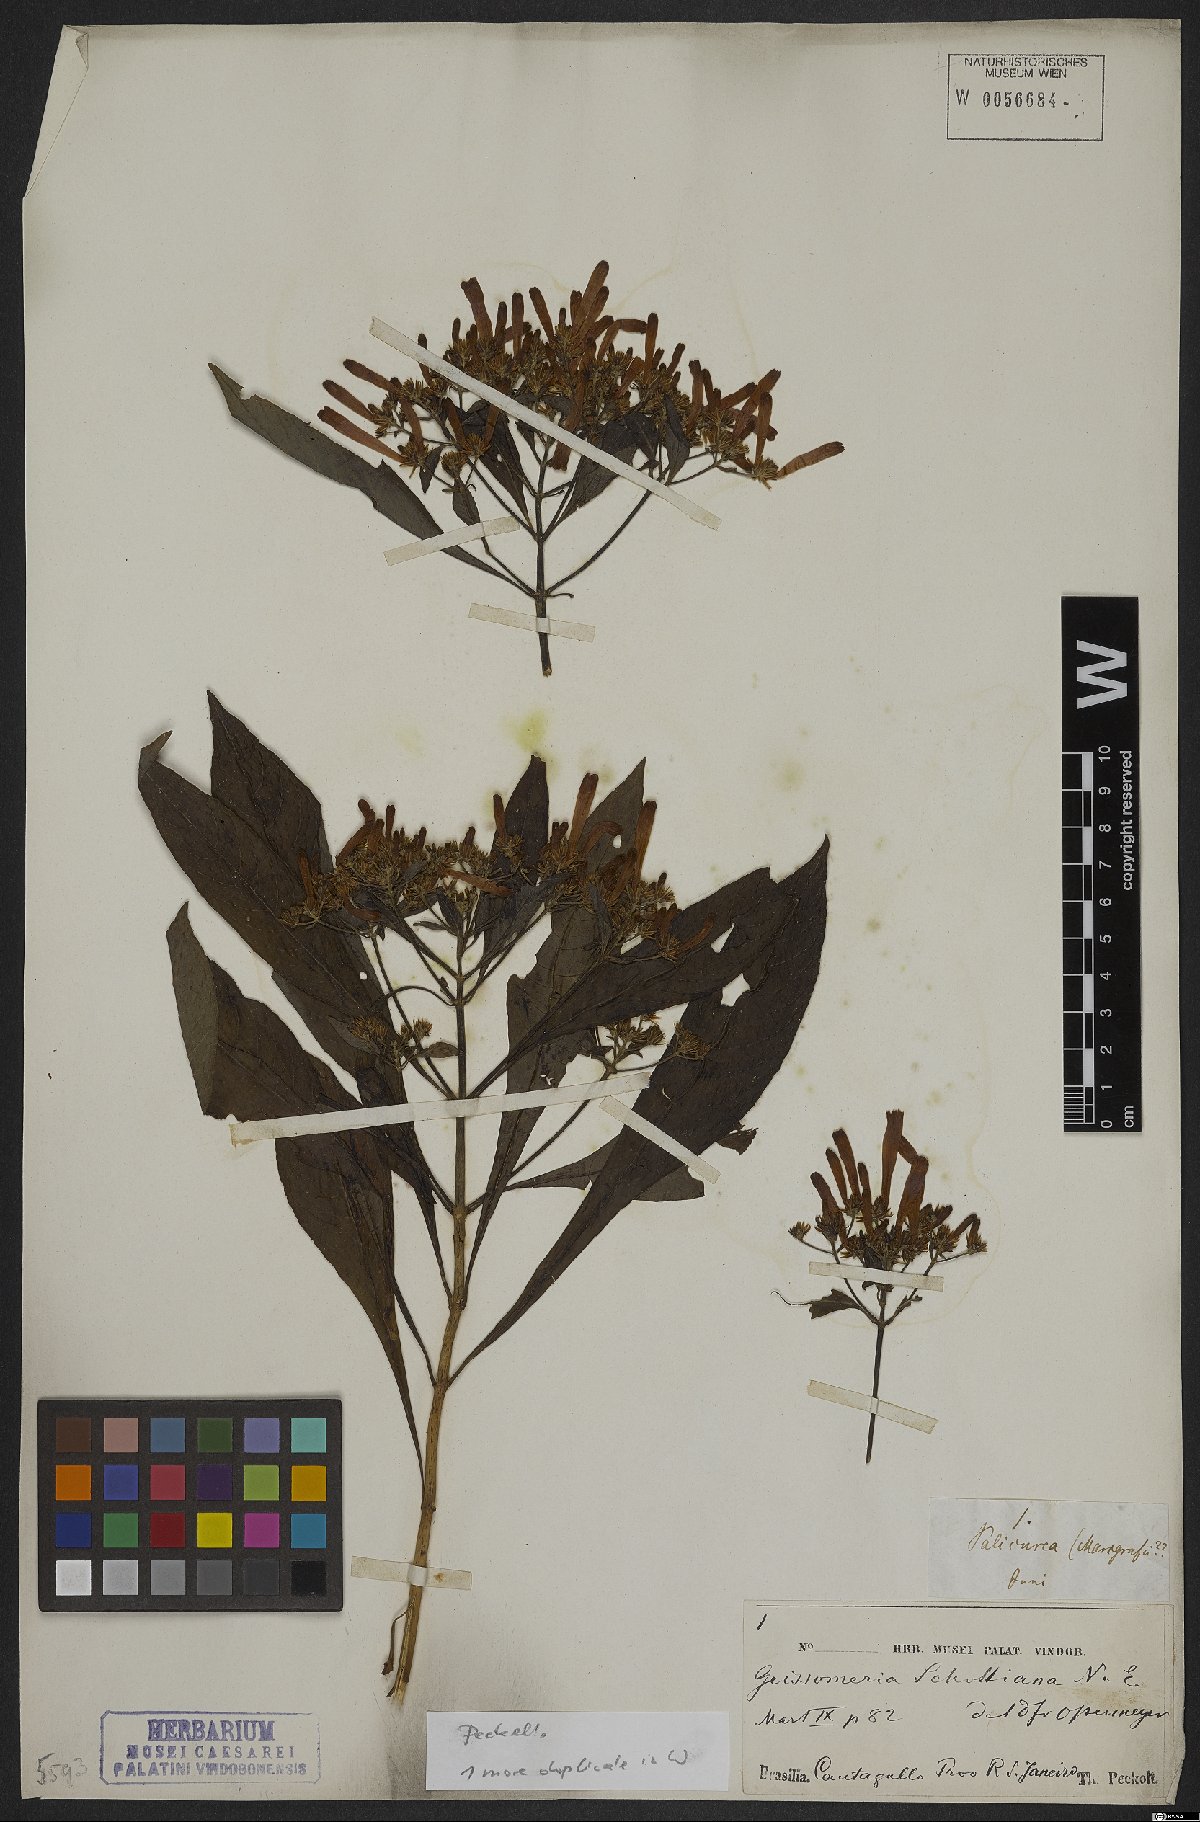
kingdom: Plantae
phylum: Tracheophyta
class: Magnoliopsida
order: Lamiales
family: Acanthaceae
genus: Aphelandra
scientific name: Aphelandra schottiana
